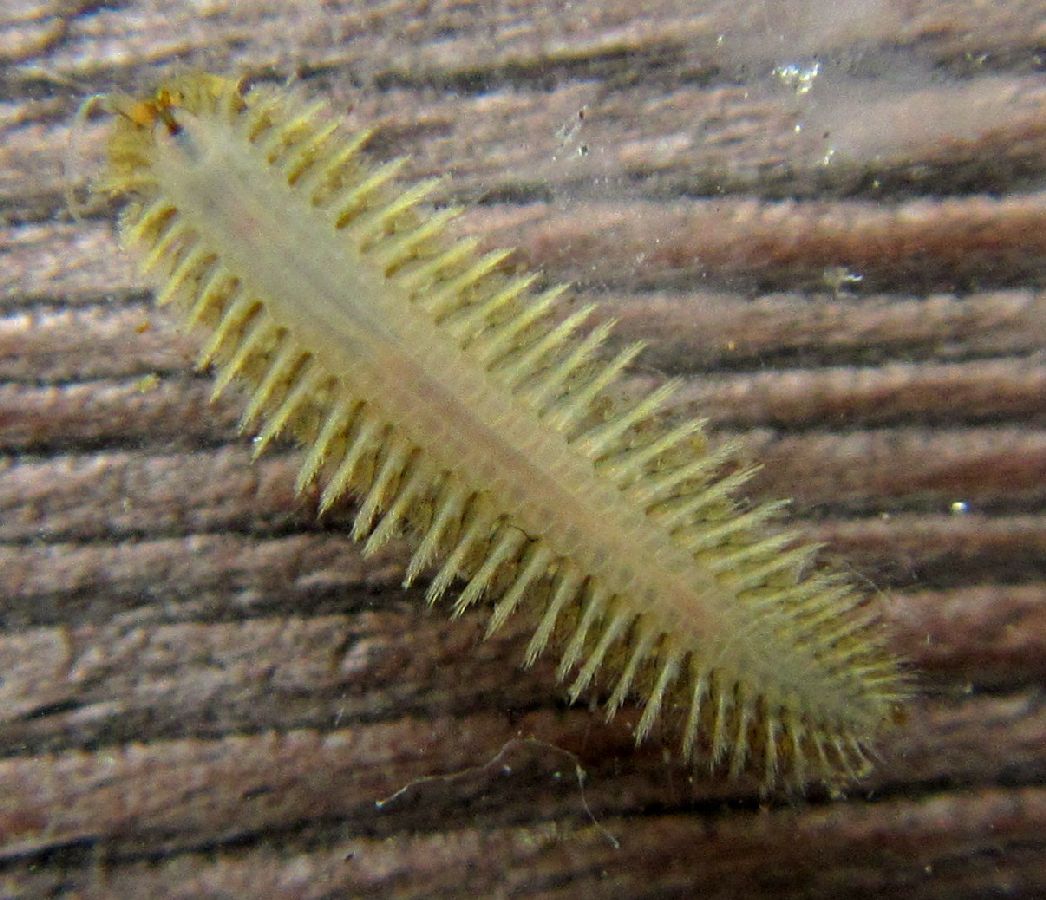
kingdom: Animalia
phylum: Annelida
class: Polychaeta
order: Phyllodocida
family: Polynoidae
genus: Harmothoe
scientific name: Harmothoe imbricata
